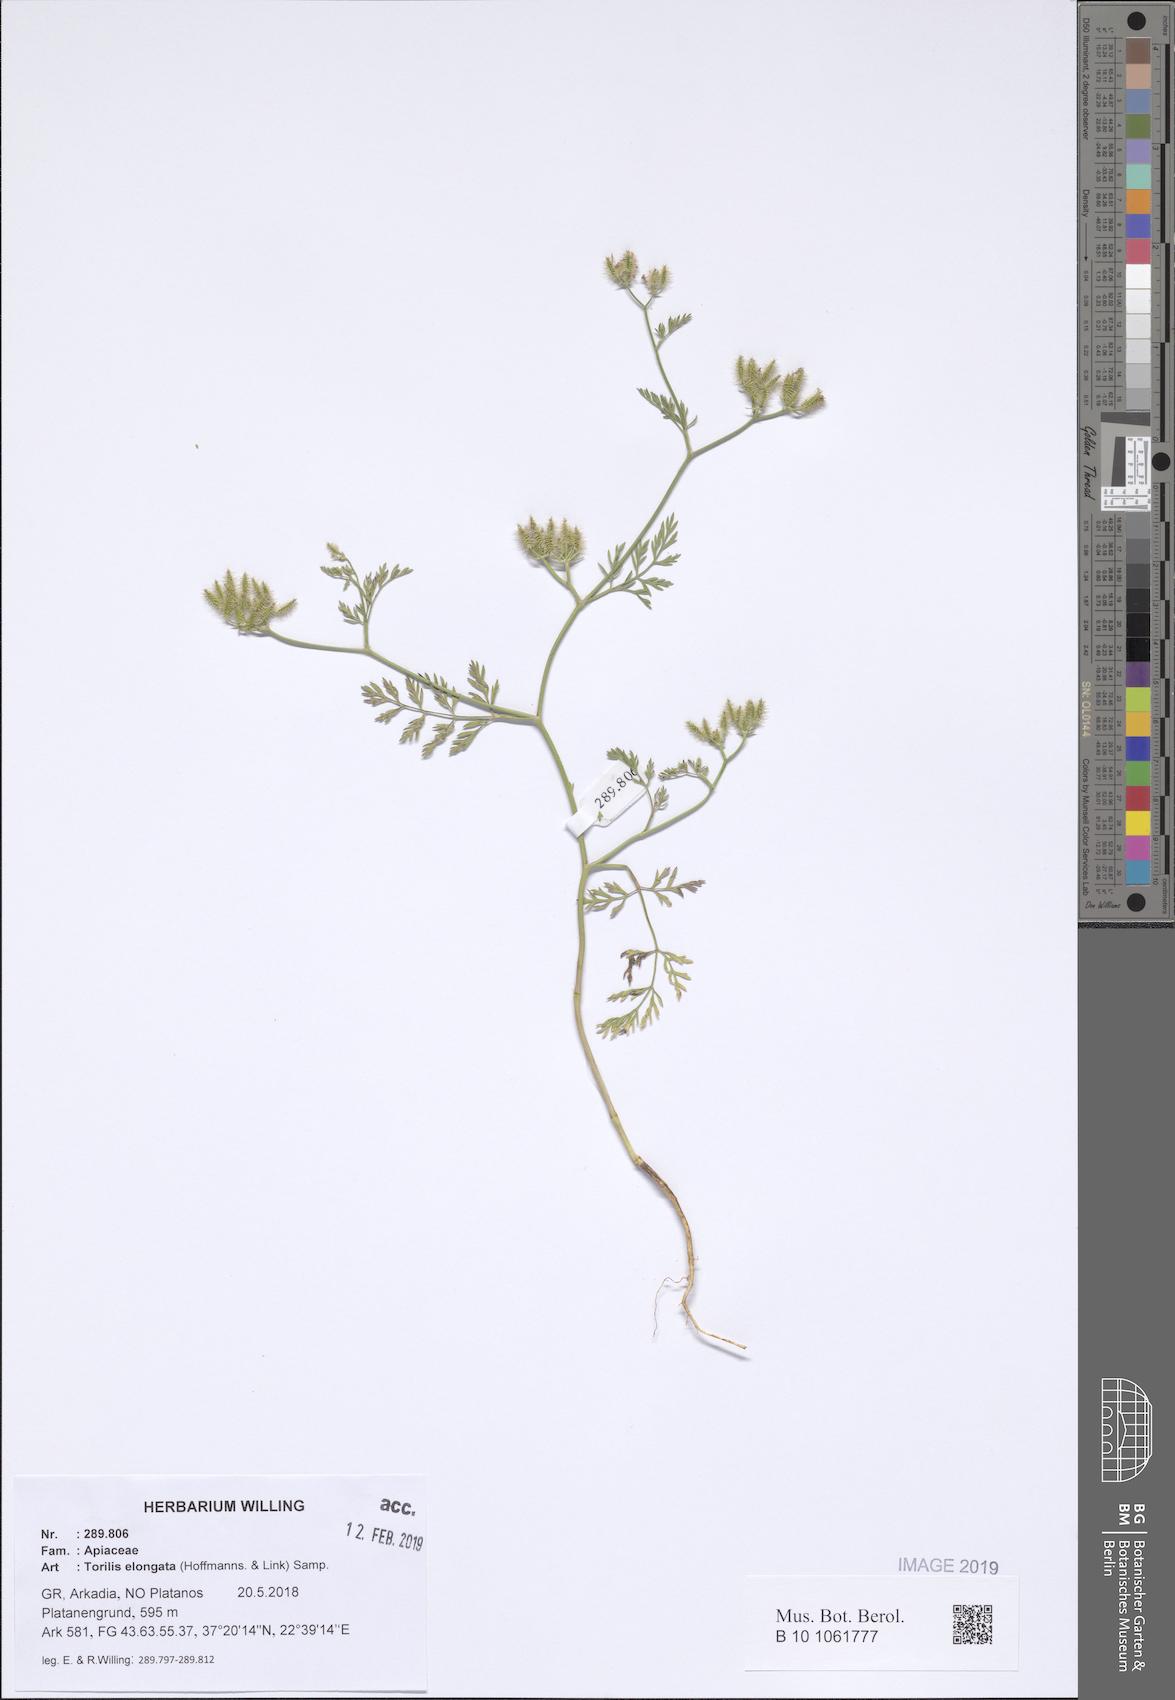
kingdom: Plantae
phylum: Tracheophyta
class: Magnoliopsida
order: Apiales
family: Apiaceae
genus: Torilis
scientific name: Torilis elongata
